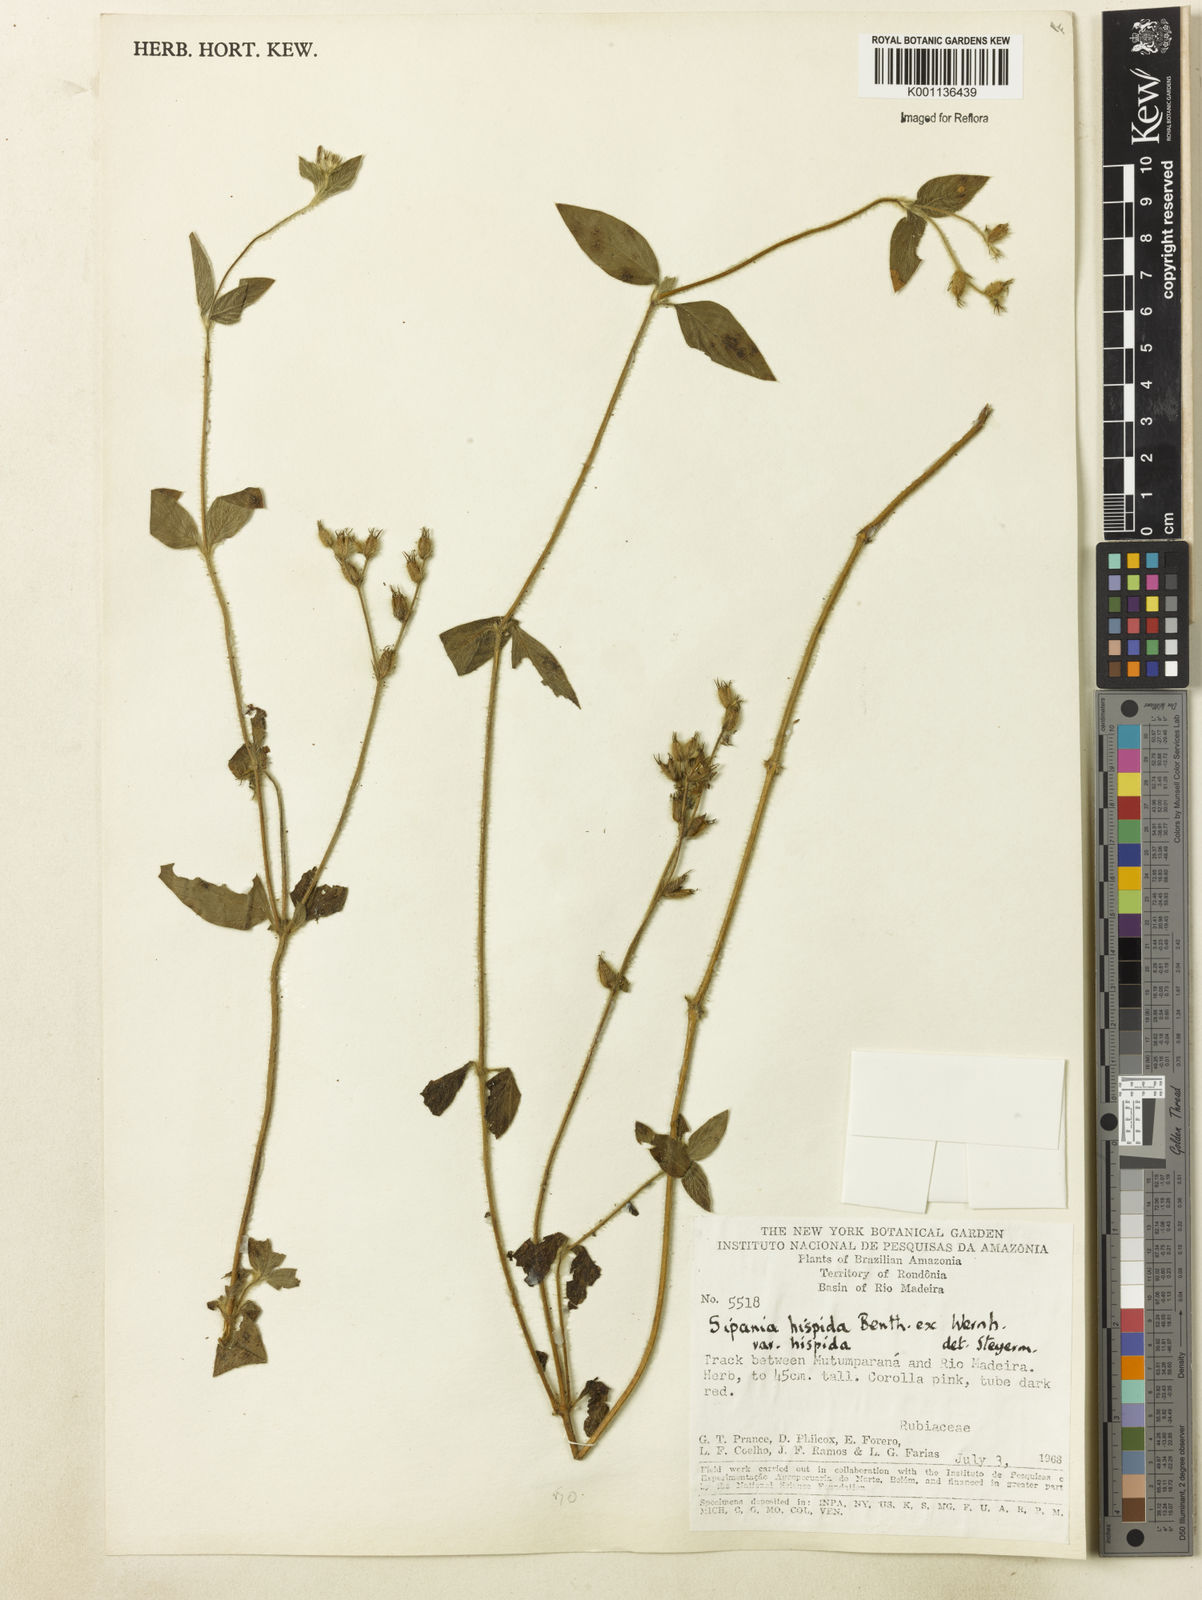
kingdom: Plantae
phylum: Tracheophyta
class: Magnoliopsida
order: Gentianales
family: Rubiaceae
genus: Sipanea
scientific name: Sipanea hispida
